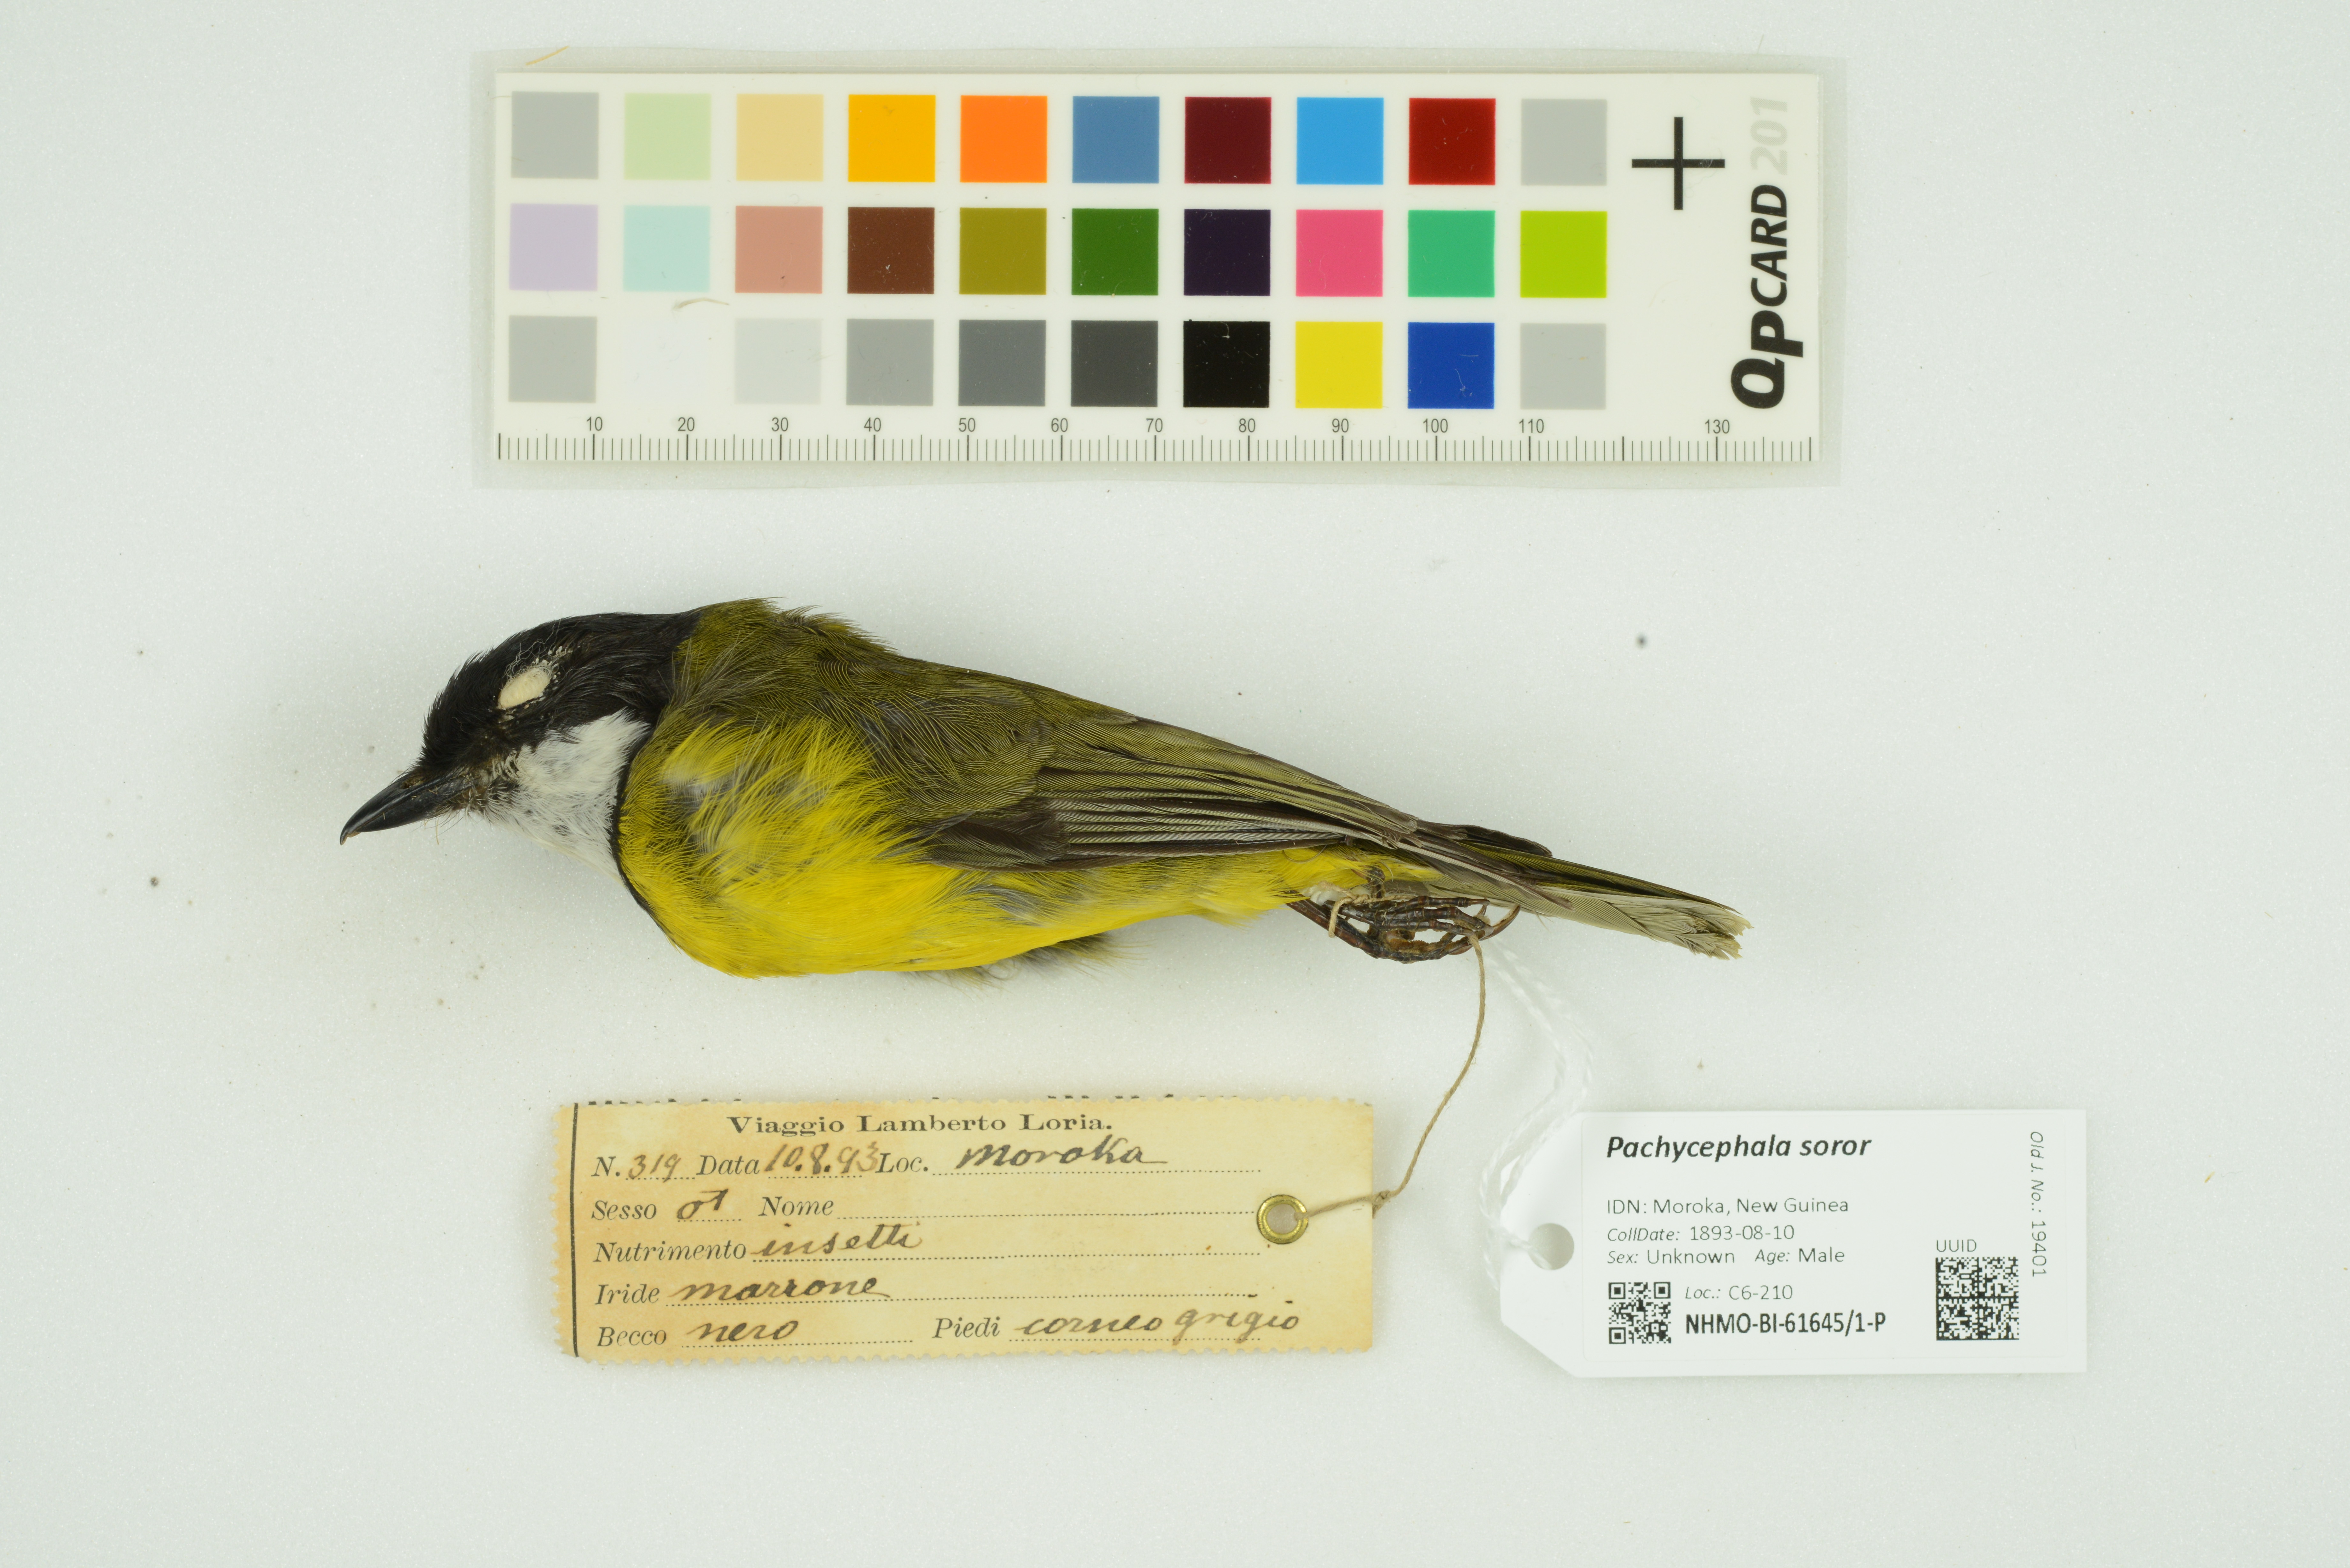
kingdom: Animalia
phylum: Chordata
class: Aves
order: Passeriformes
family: Pachycephalidae
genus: Pachycephala
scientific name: Pachycephala soror
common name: Sclater's whistler
